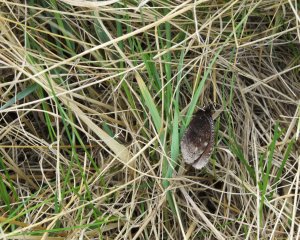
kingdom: Animalia
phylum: Arthropoda
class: Insecta
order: Lepidoptera
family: Nymphalidae
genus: Erebia
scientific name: Erebia discoidalis
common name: Red-disked Alpine
